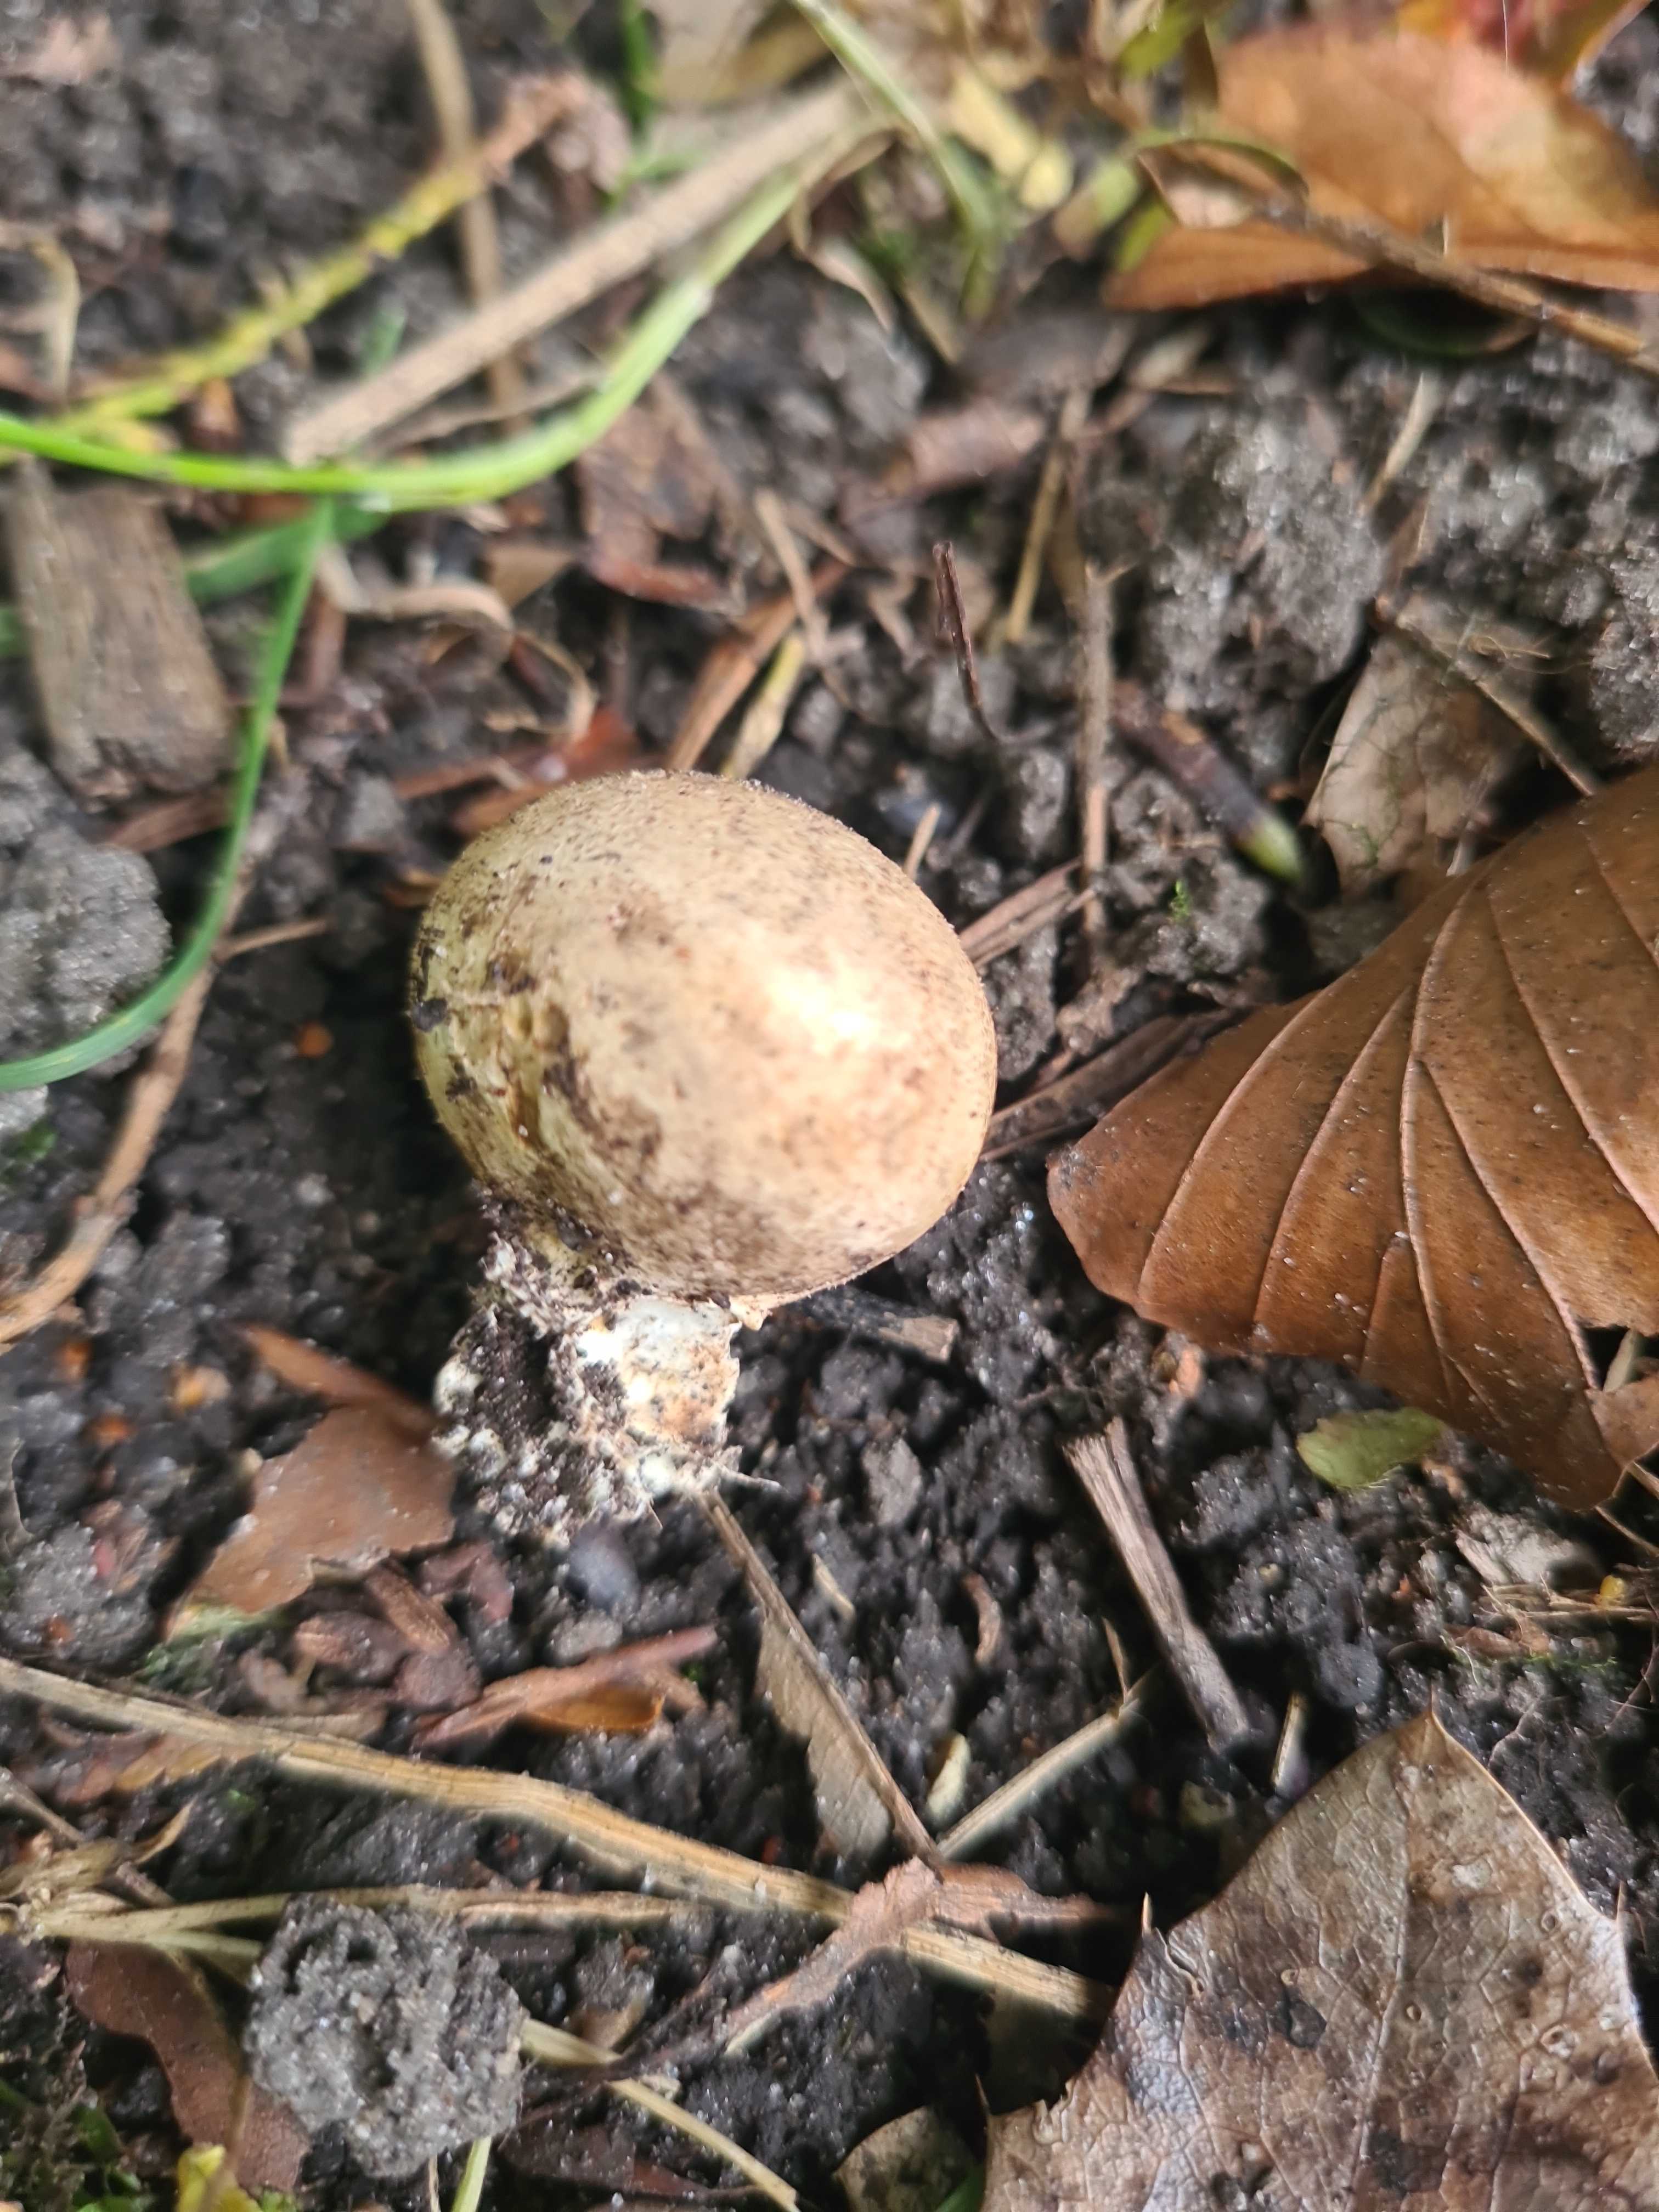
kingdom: Fungi
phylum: Basidiomycota
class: Agaricomycetes
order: Boletales
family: Sclerodermataceae
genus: Scleroderma
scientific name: Scleroderma bovista
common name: bovist-bruskbold
